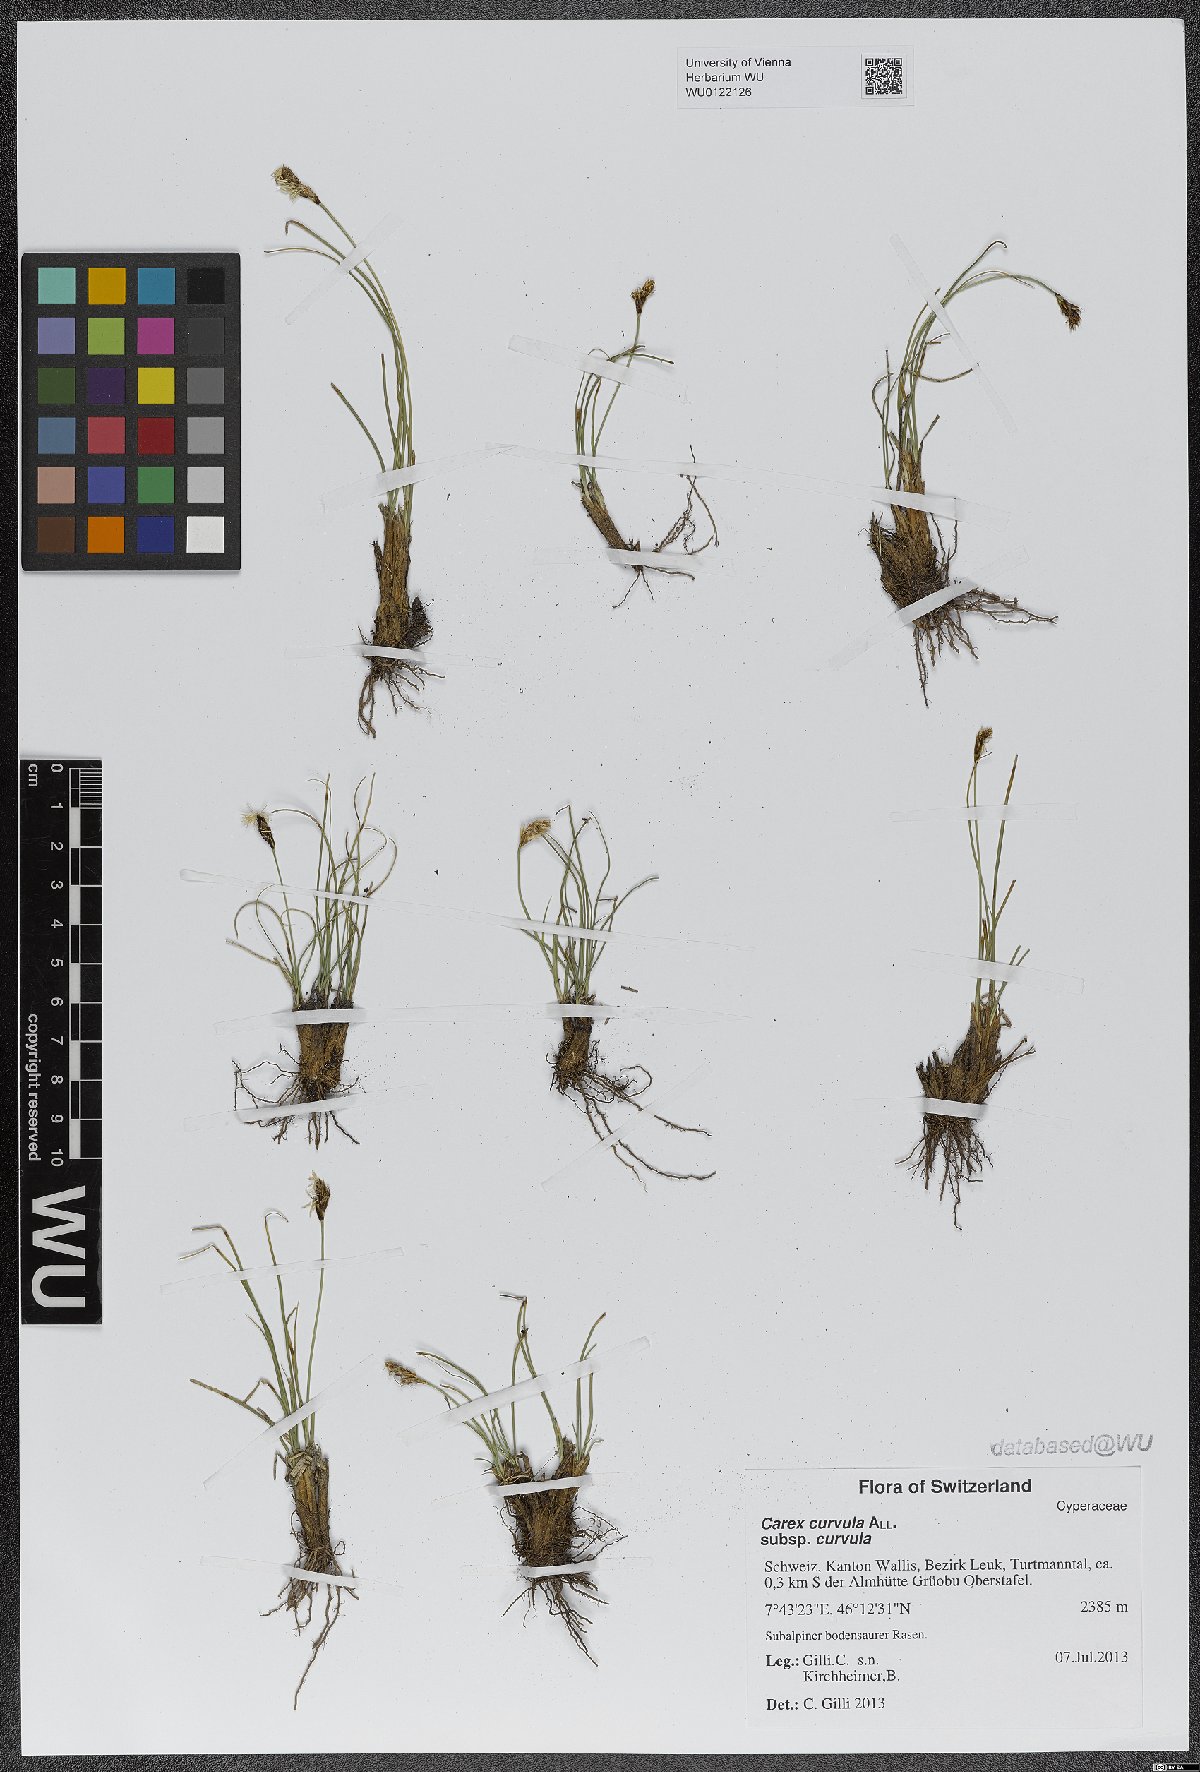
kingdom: Plantae
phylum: Tracheophyta
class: Liliopsida
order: Poales
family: Cyperaceae
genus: Carex
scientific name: Carex curvula
